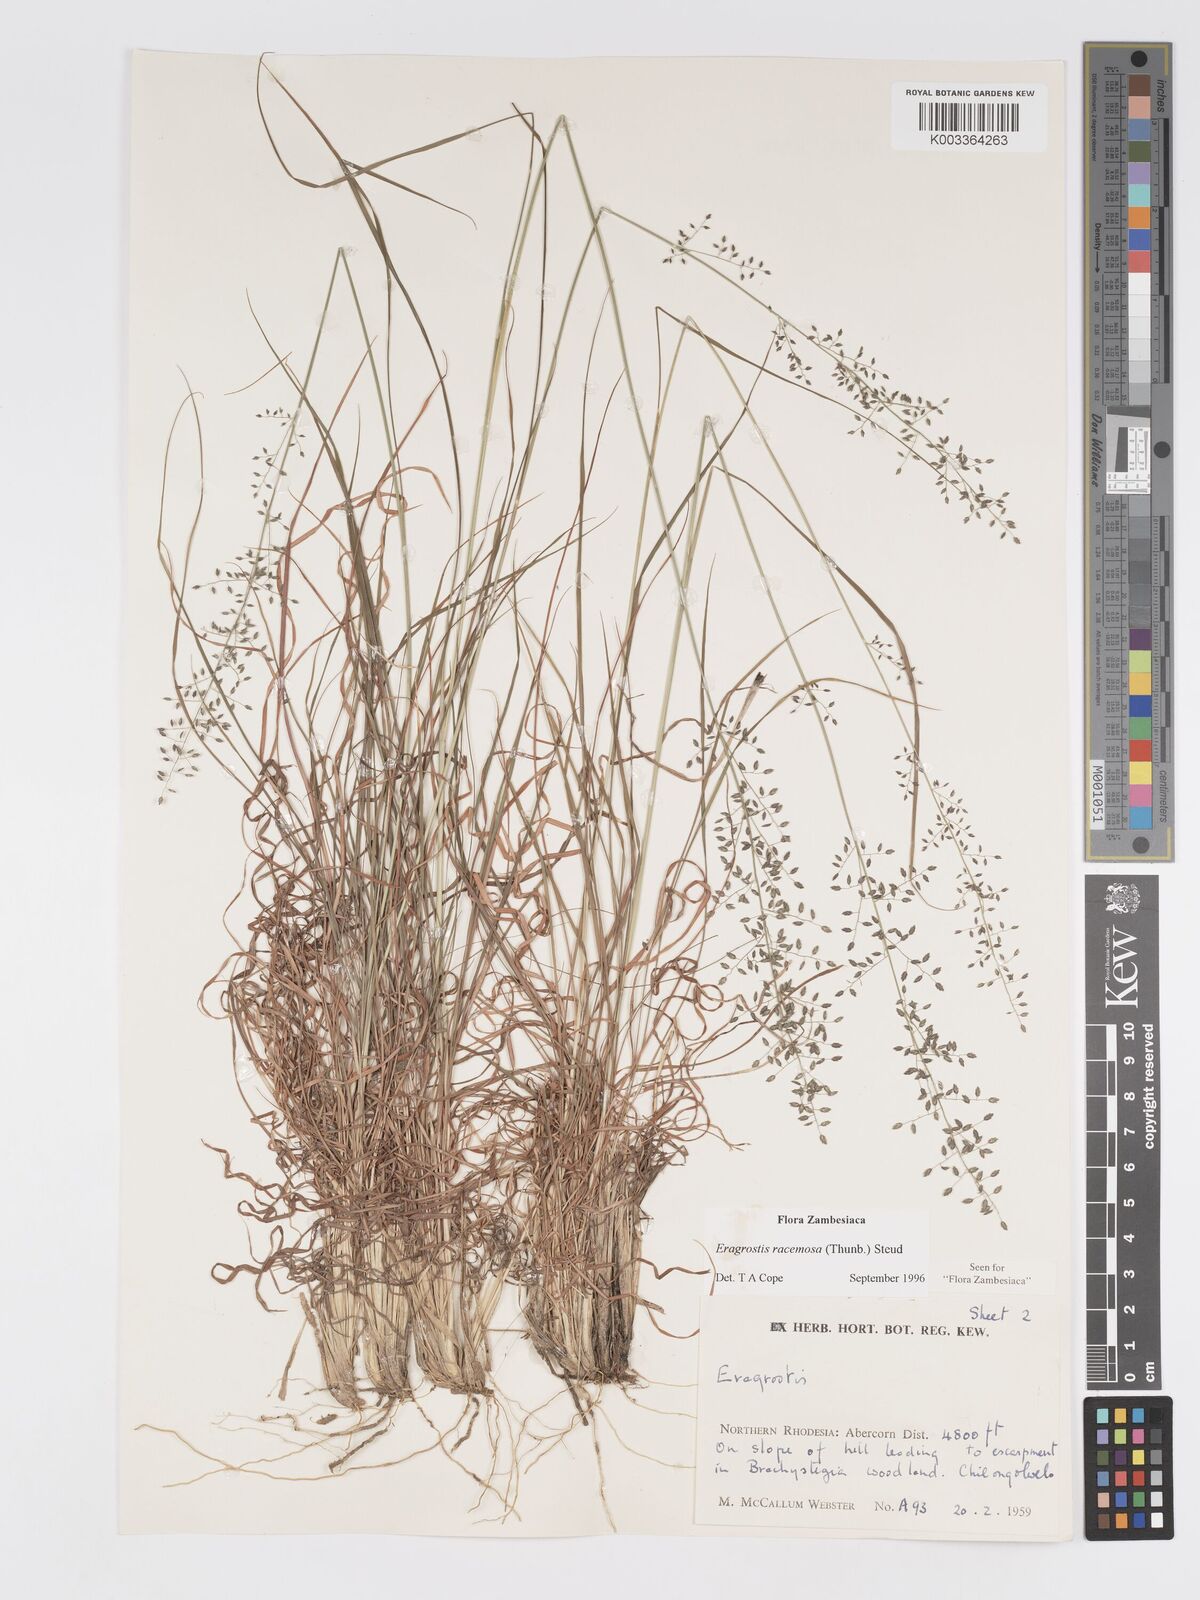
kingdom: Plantae
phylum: Tracheophyta
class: Liliopsida
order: Poales
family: Poaceae
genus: Eragrostis
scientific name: Eragrostis racemosa
